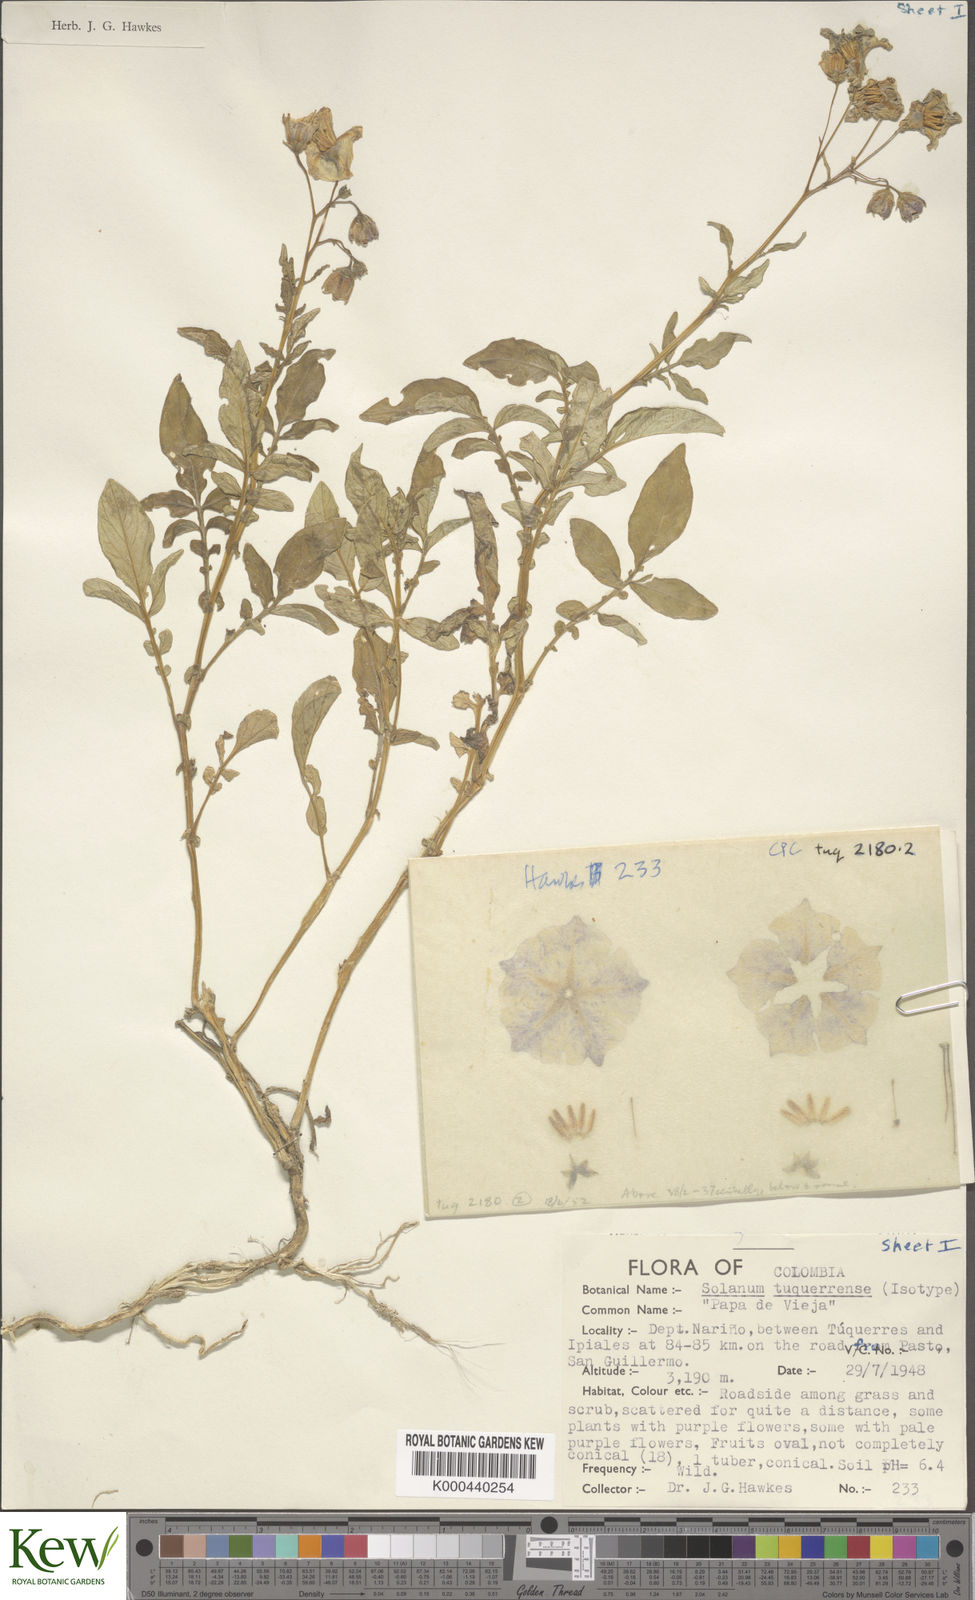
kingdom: Plantae
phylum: Tracheophyta
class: Magnoliopsida
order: Solanales
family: Solanaceae
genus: Solanum
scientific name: Solanum andreanum
